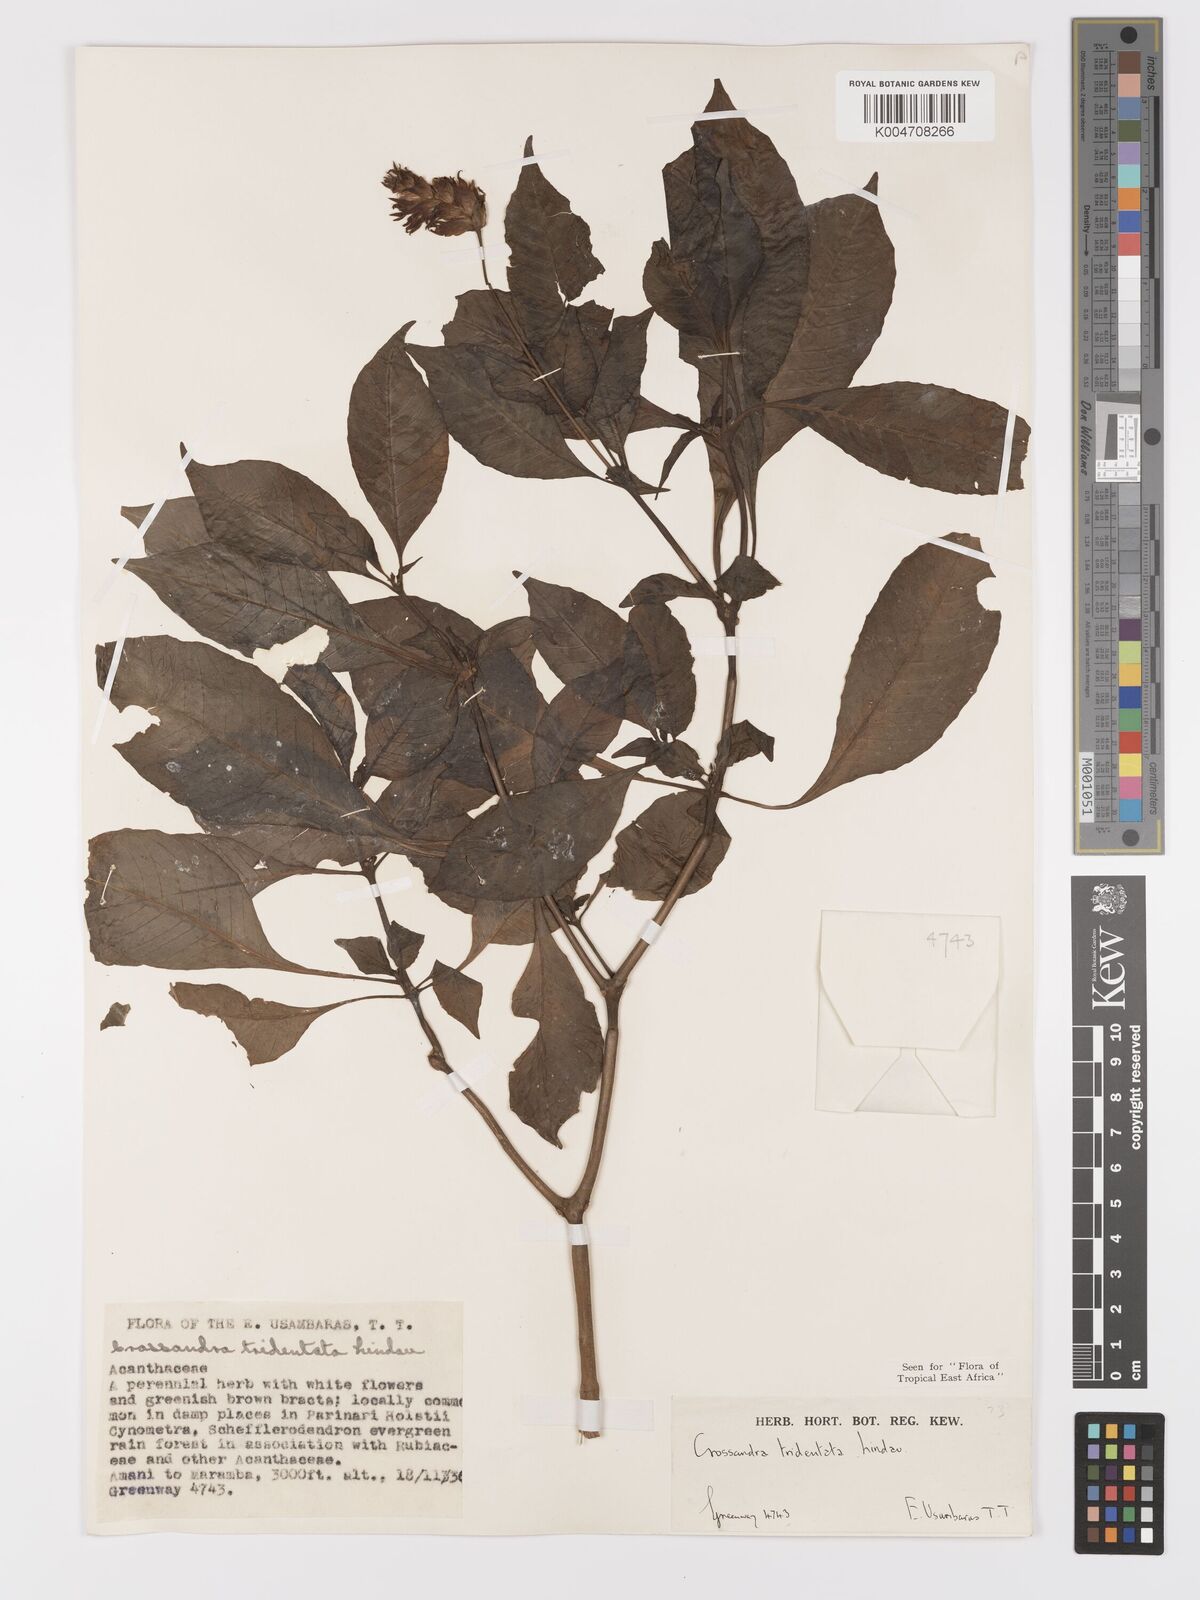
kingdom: Plantae
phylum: Tracheophyta
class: Magnoliopsida
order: Lamiales
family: Acanthaceae
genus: Crossandra
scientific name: Crossandra tridentata
